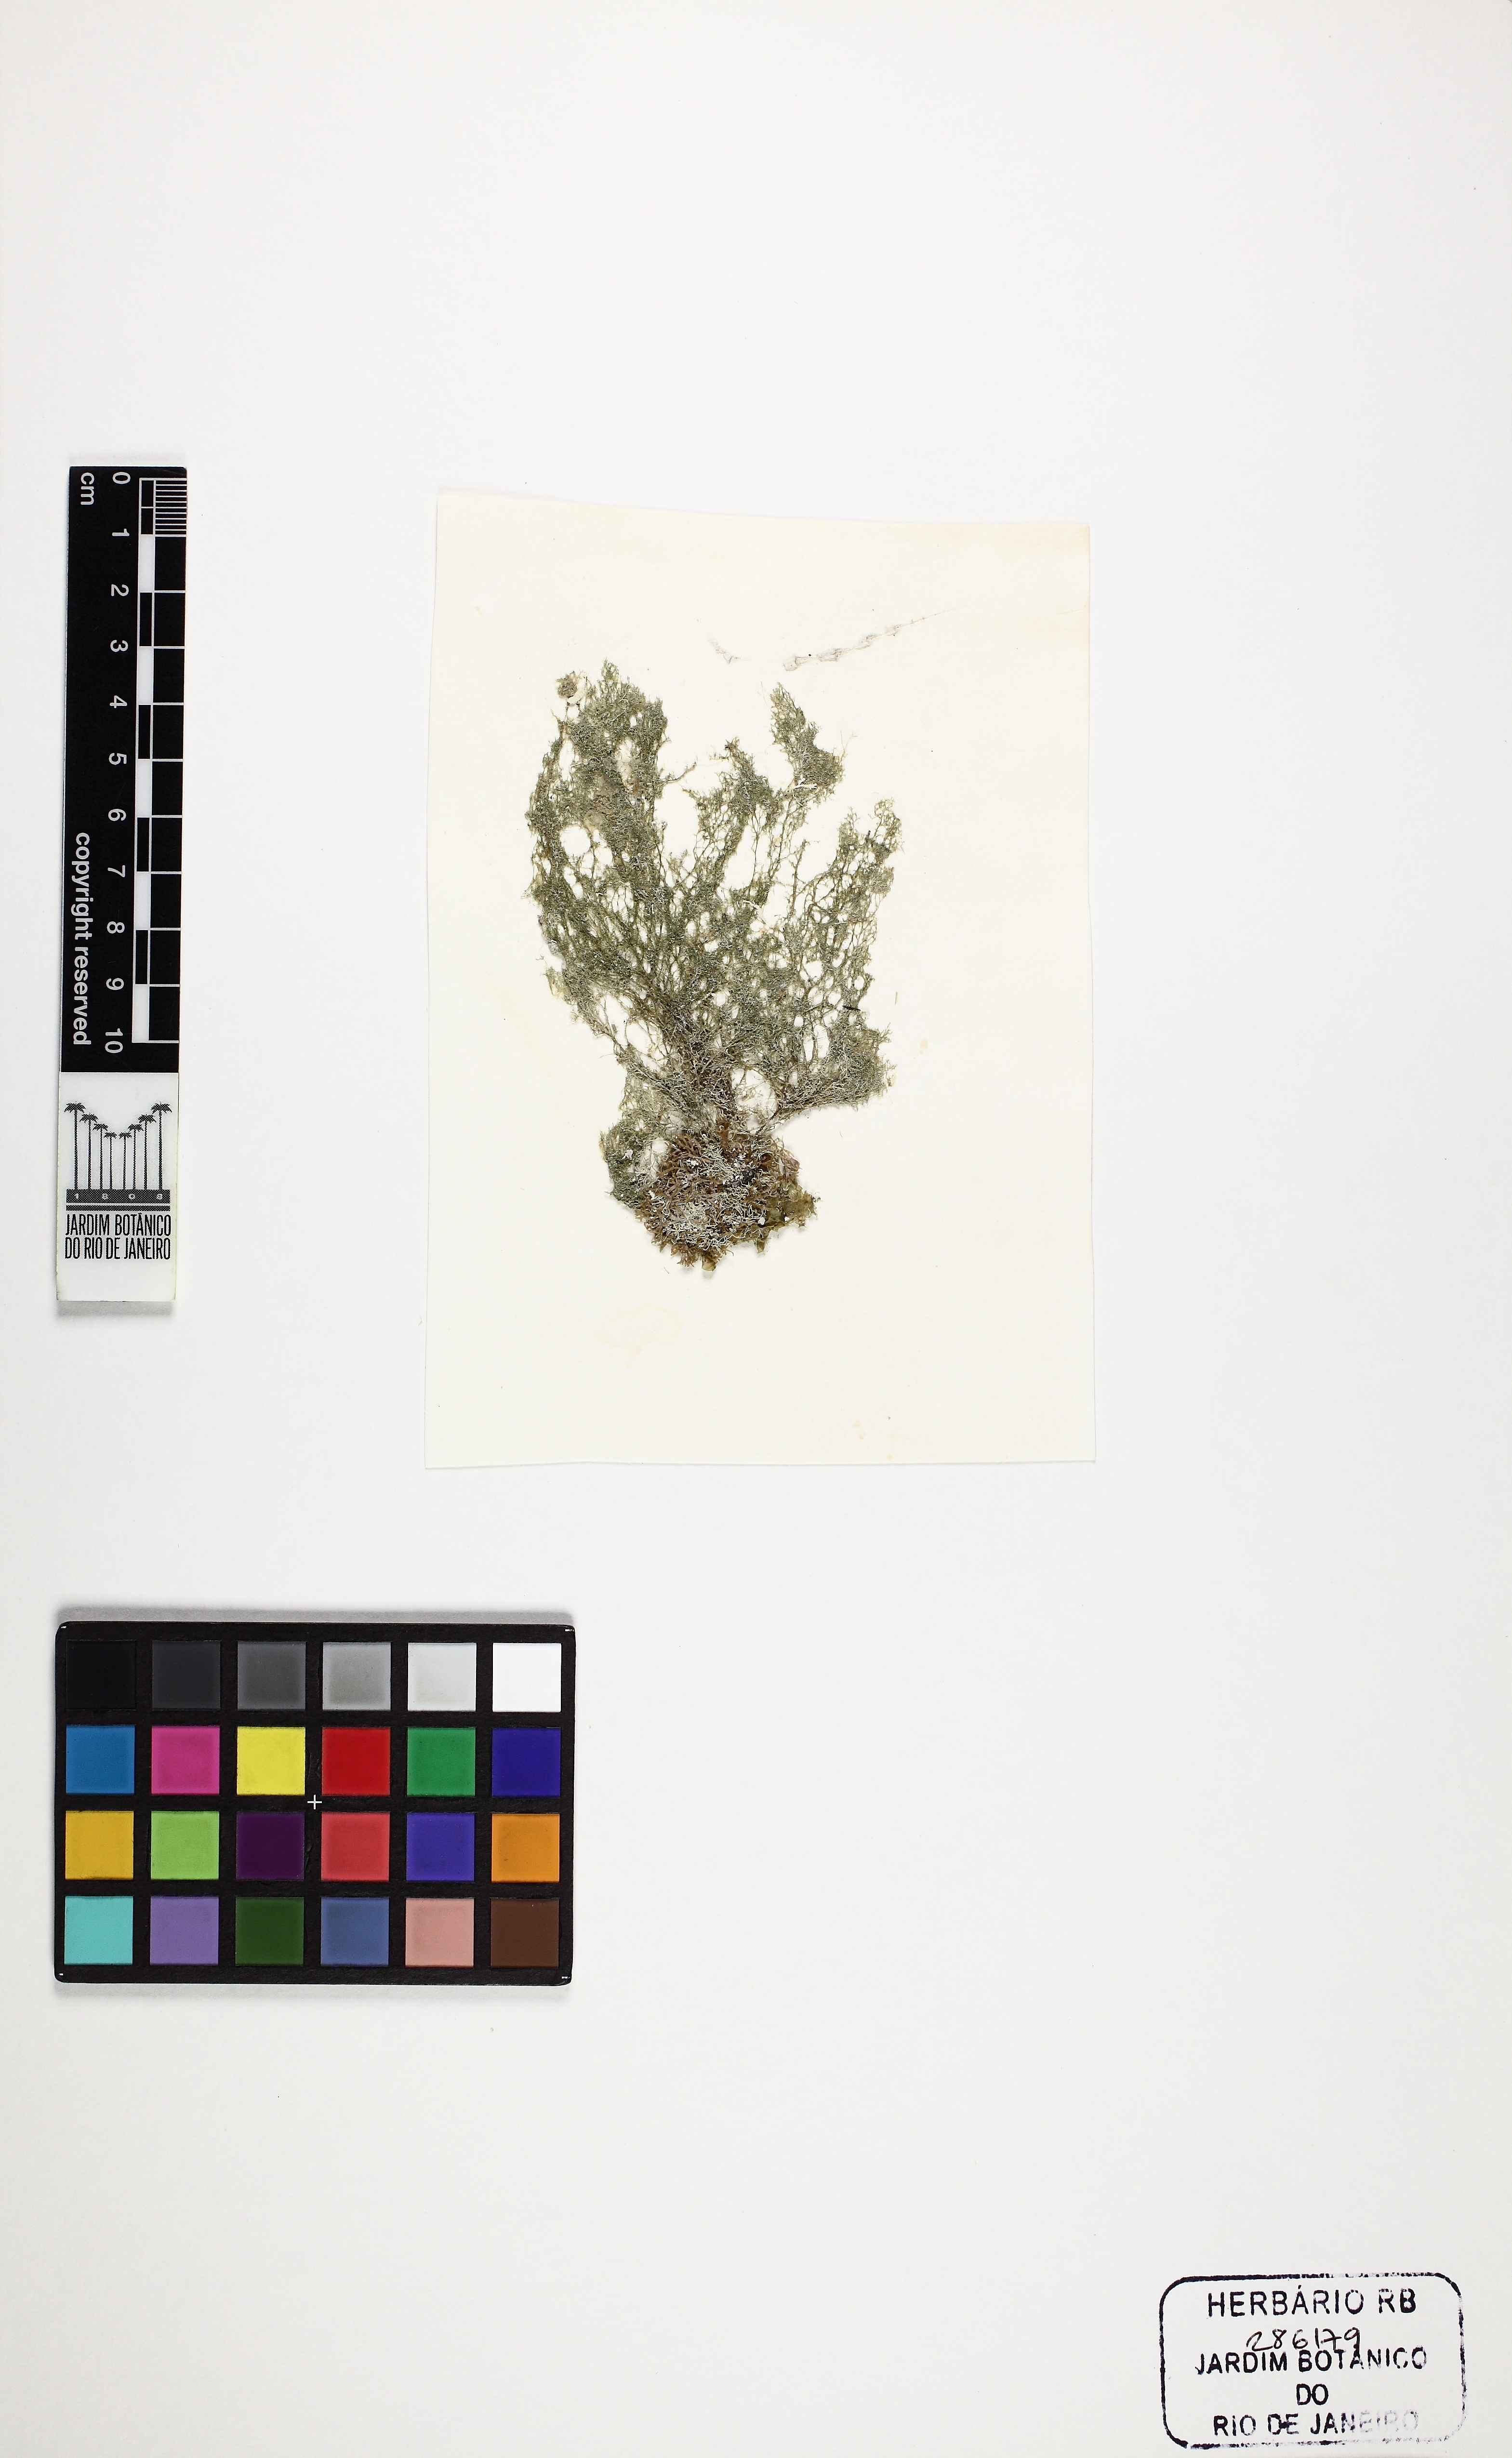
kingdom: Plantae
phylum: Rhodophyta
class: Florideophyceae
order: Ceramiales
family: Spyridiaceae
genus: Spyridia
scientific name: Spyridia hypnoides
